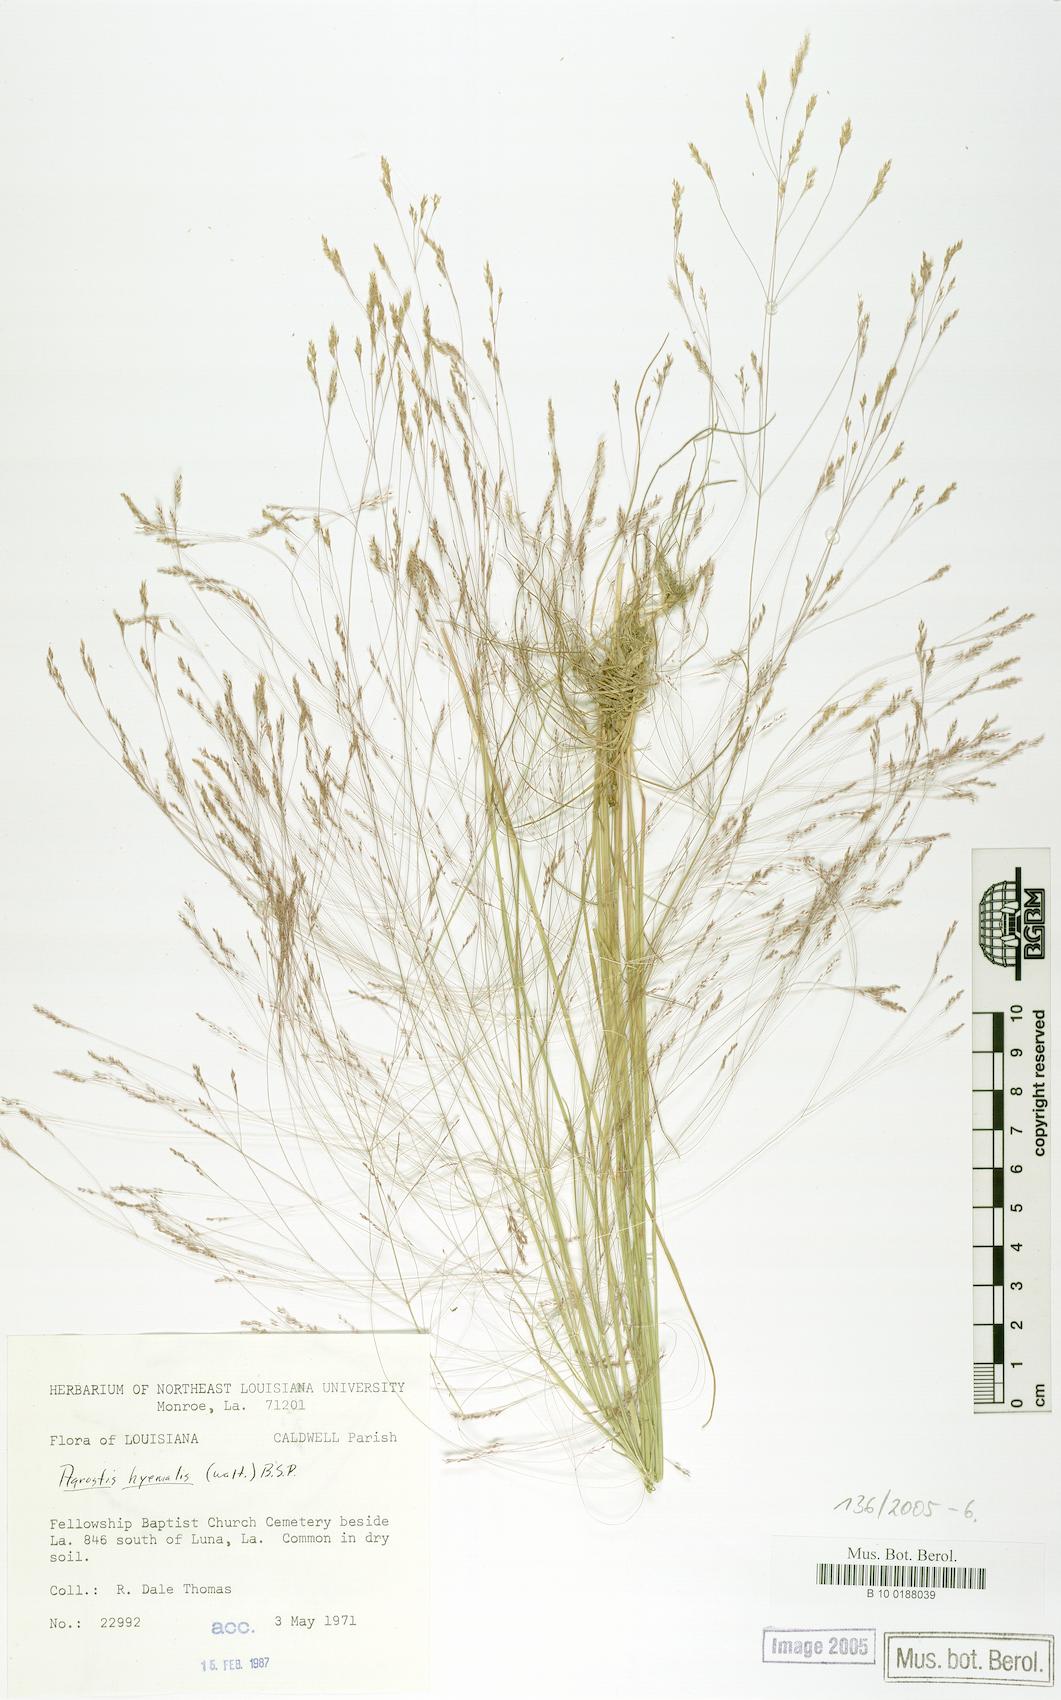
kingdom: Plantae
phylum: Tracheophyta
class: Liliopsida
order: Poales
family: Poaceae
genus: Agrostis
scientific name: Agrostis hyemalis
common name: Small bent
